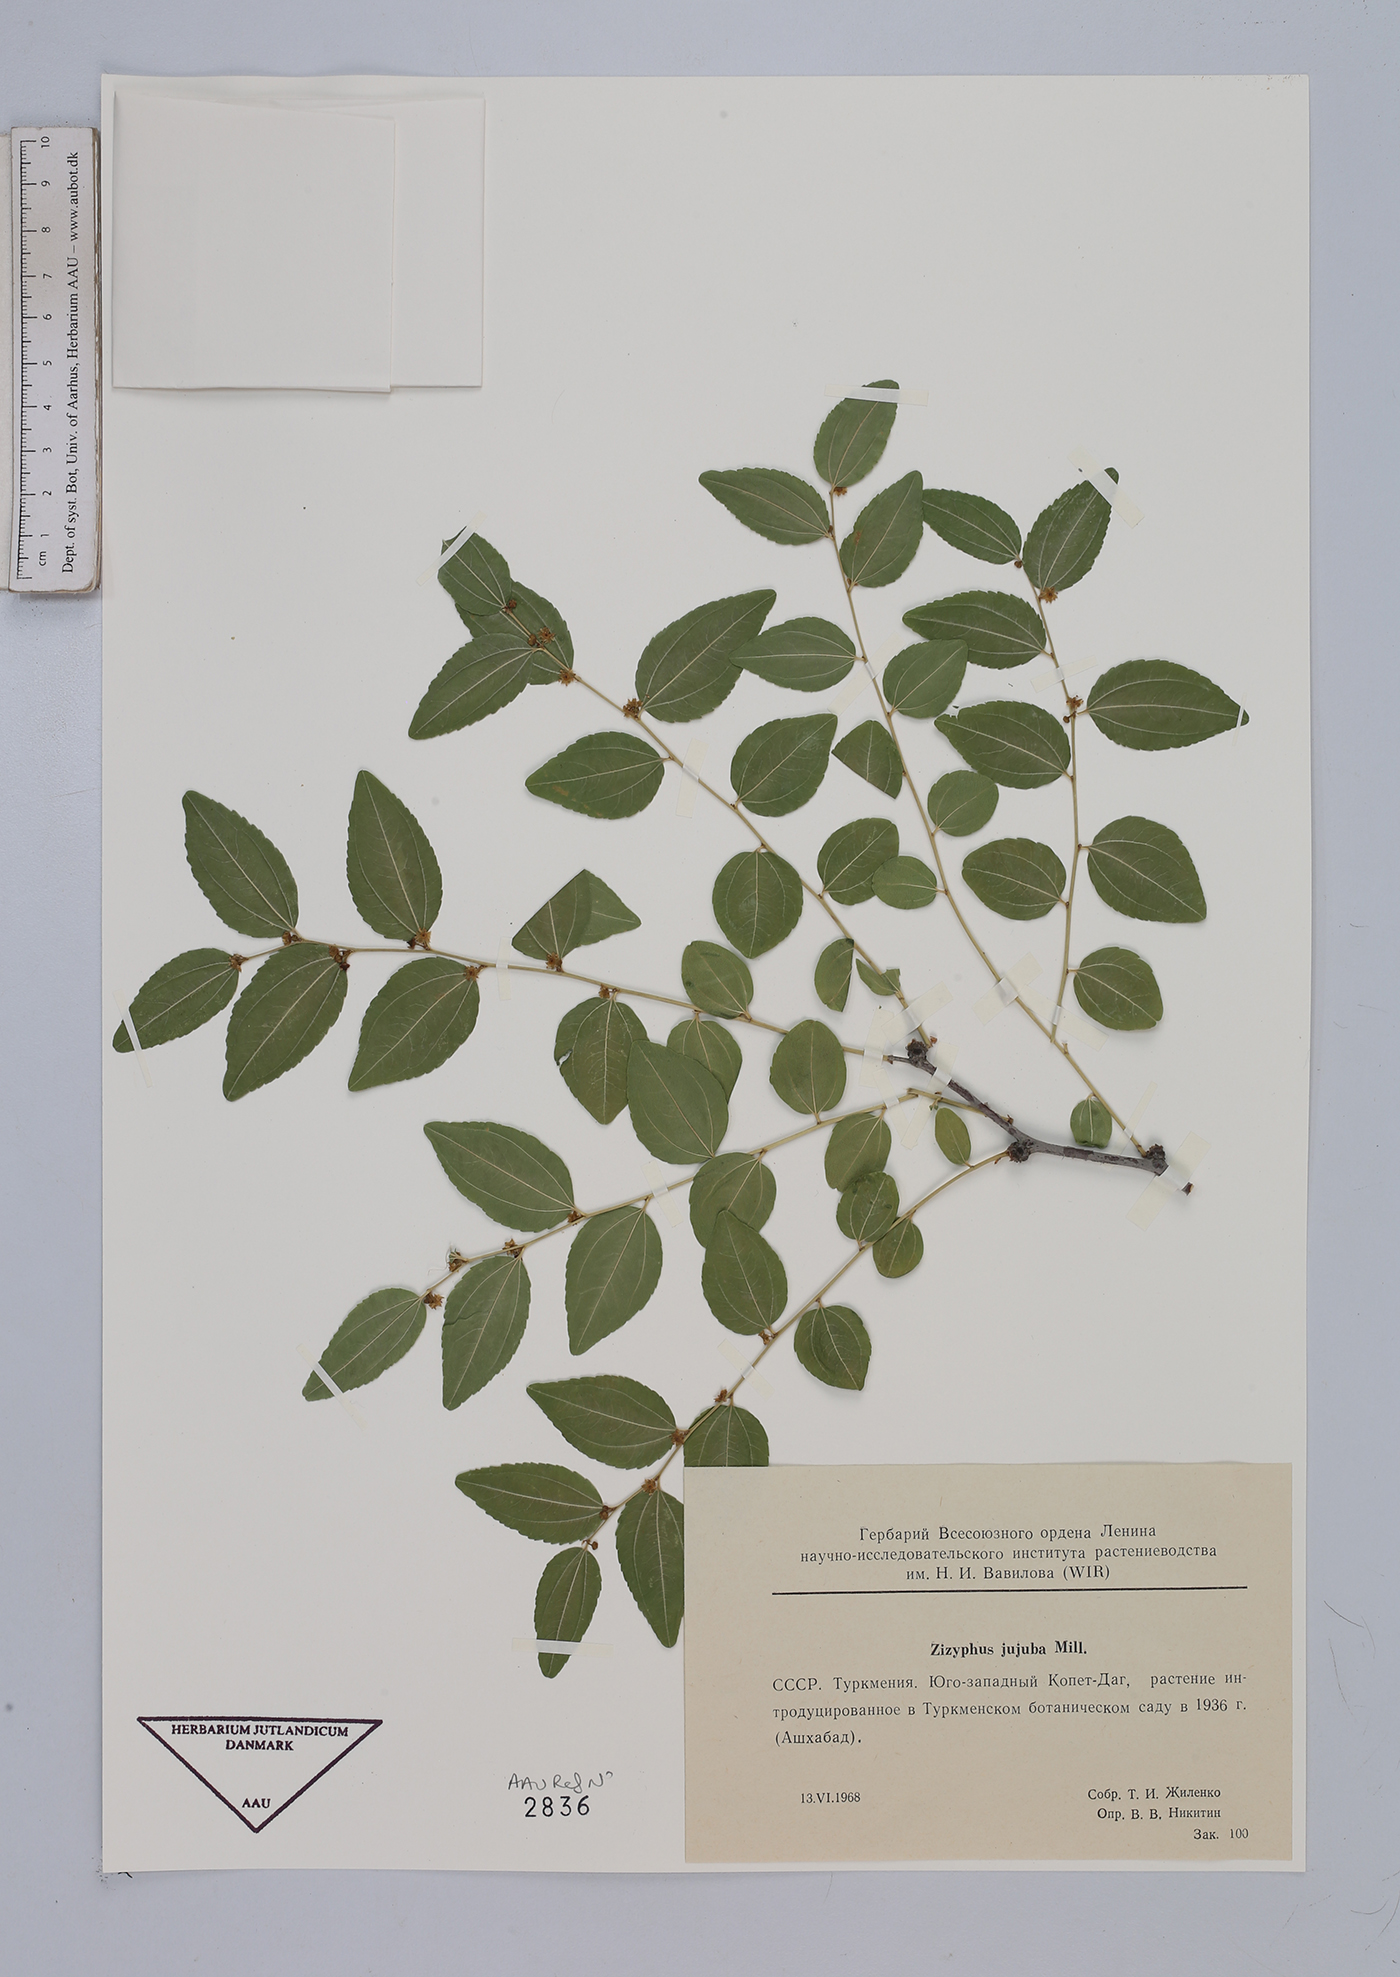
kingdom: Plantae
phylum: Tracheophyta
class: Magnoliopsida
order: Rosales
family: Rhamnaceae
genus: Ziziphus
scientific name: Ziziphus jujuba
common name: Jujube red date
